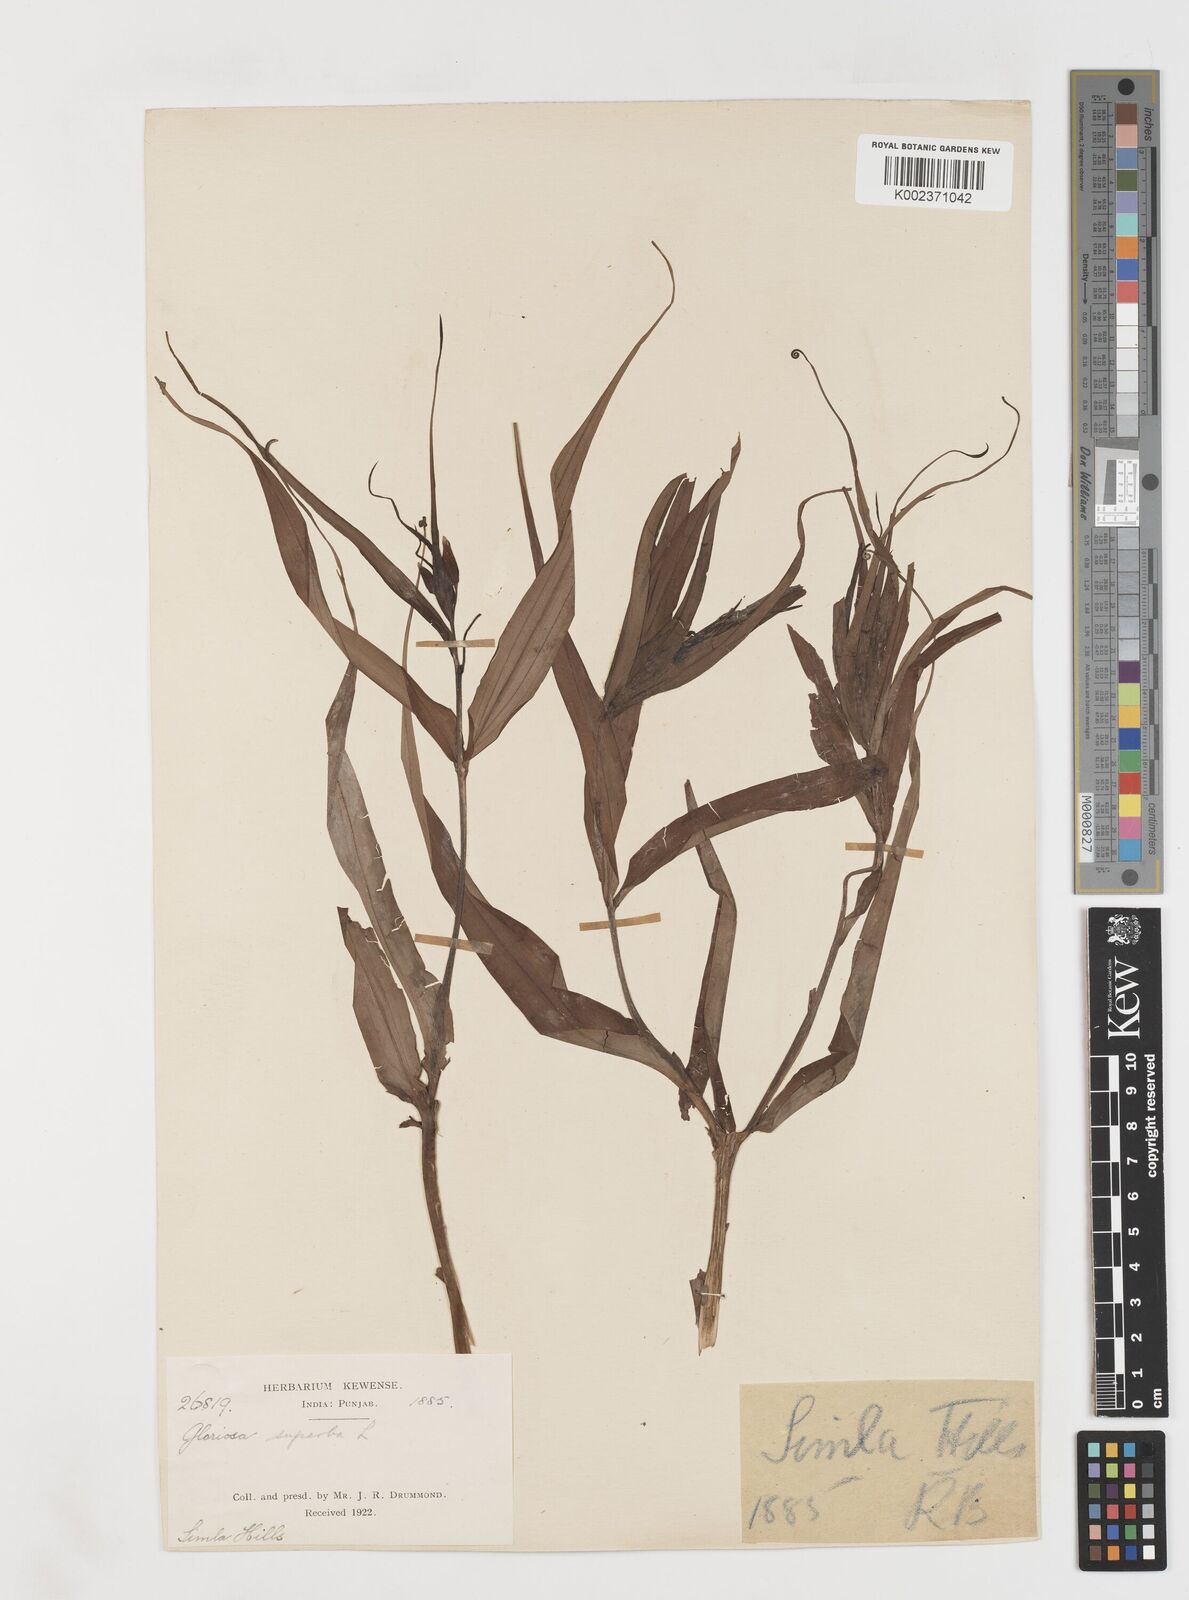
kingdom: Plantae
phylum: Tracheophyta
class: Liliopsida
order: Liliales
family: Colchicaceae
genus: Gloriosa
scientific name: Gloriosa superba
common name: Flame lily
